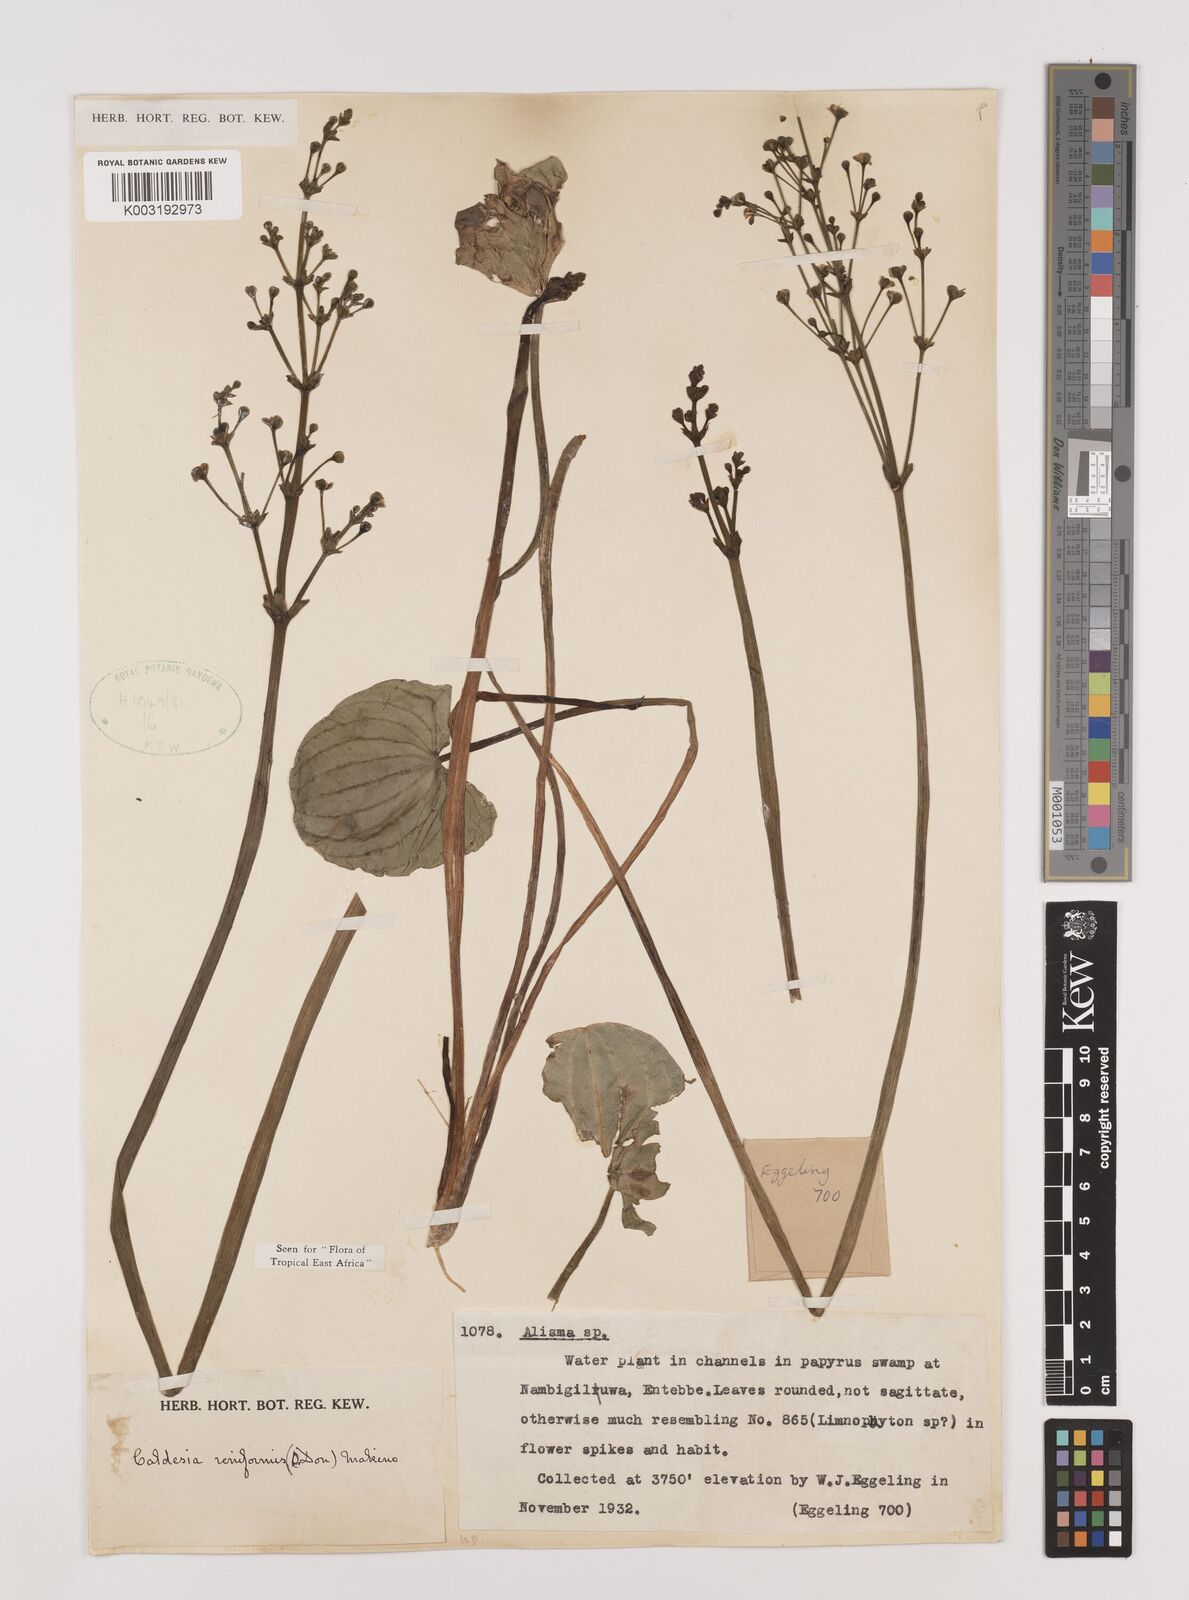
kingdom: Plantae
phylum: Tracheophyta
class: Liliopsida
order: Alismatales
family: Alismataceae
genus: Caldesia
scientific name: Caldesia parnassifolia
